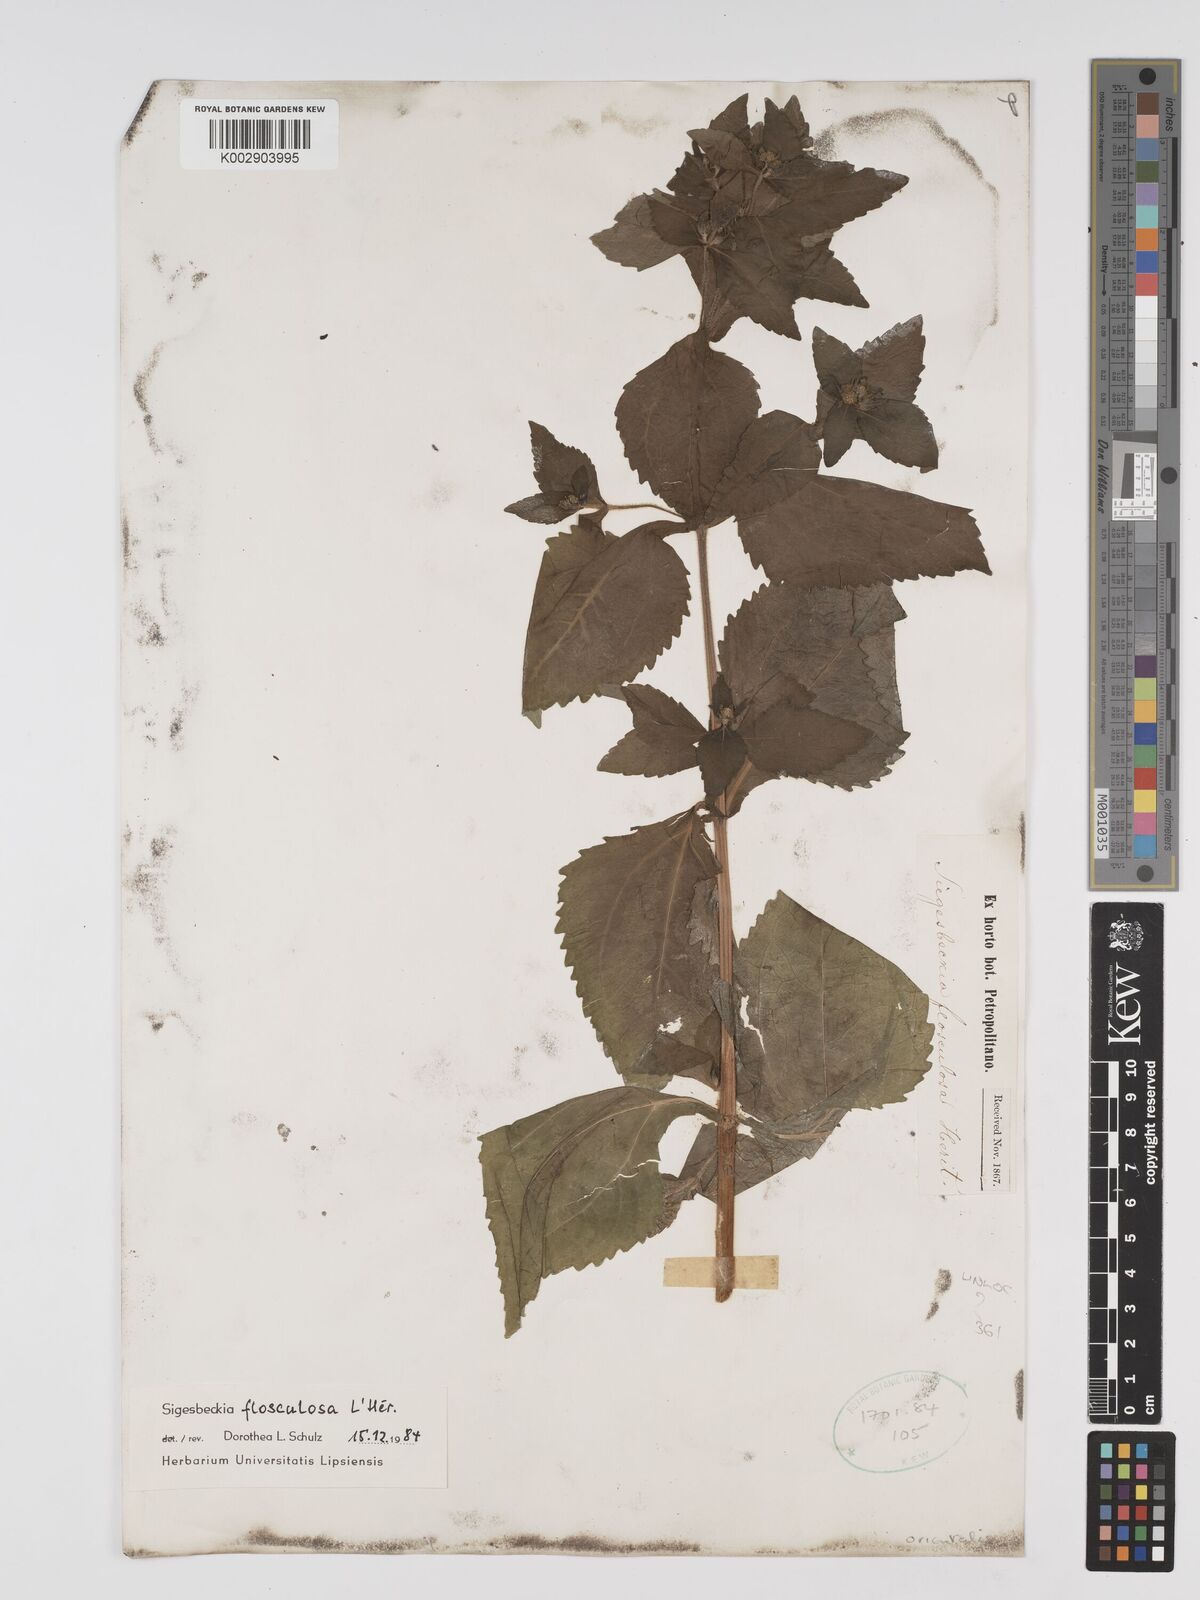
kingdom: Plantae
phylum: Tracheophyta
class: Magnoliopsida
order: Asterales
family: Asteraceae
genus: Sigesbeckia
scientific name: Sigesbeckia
